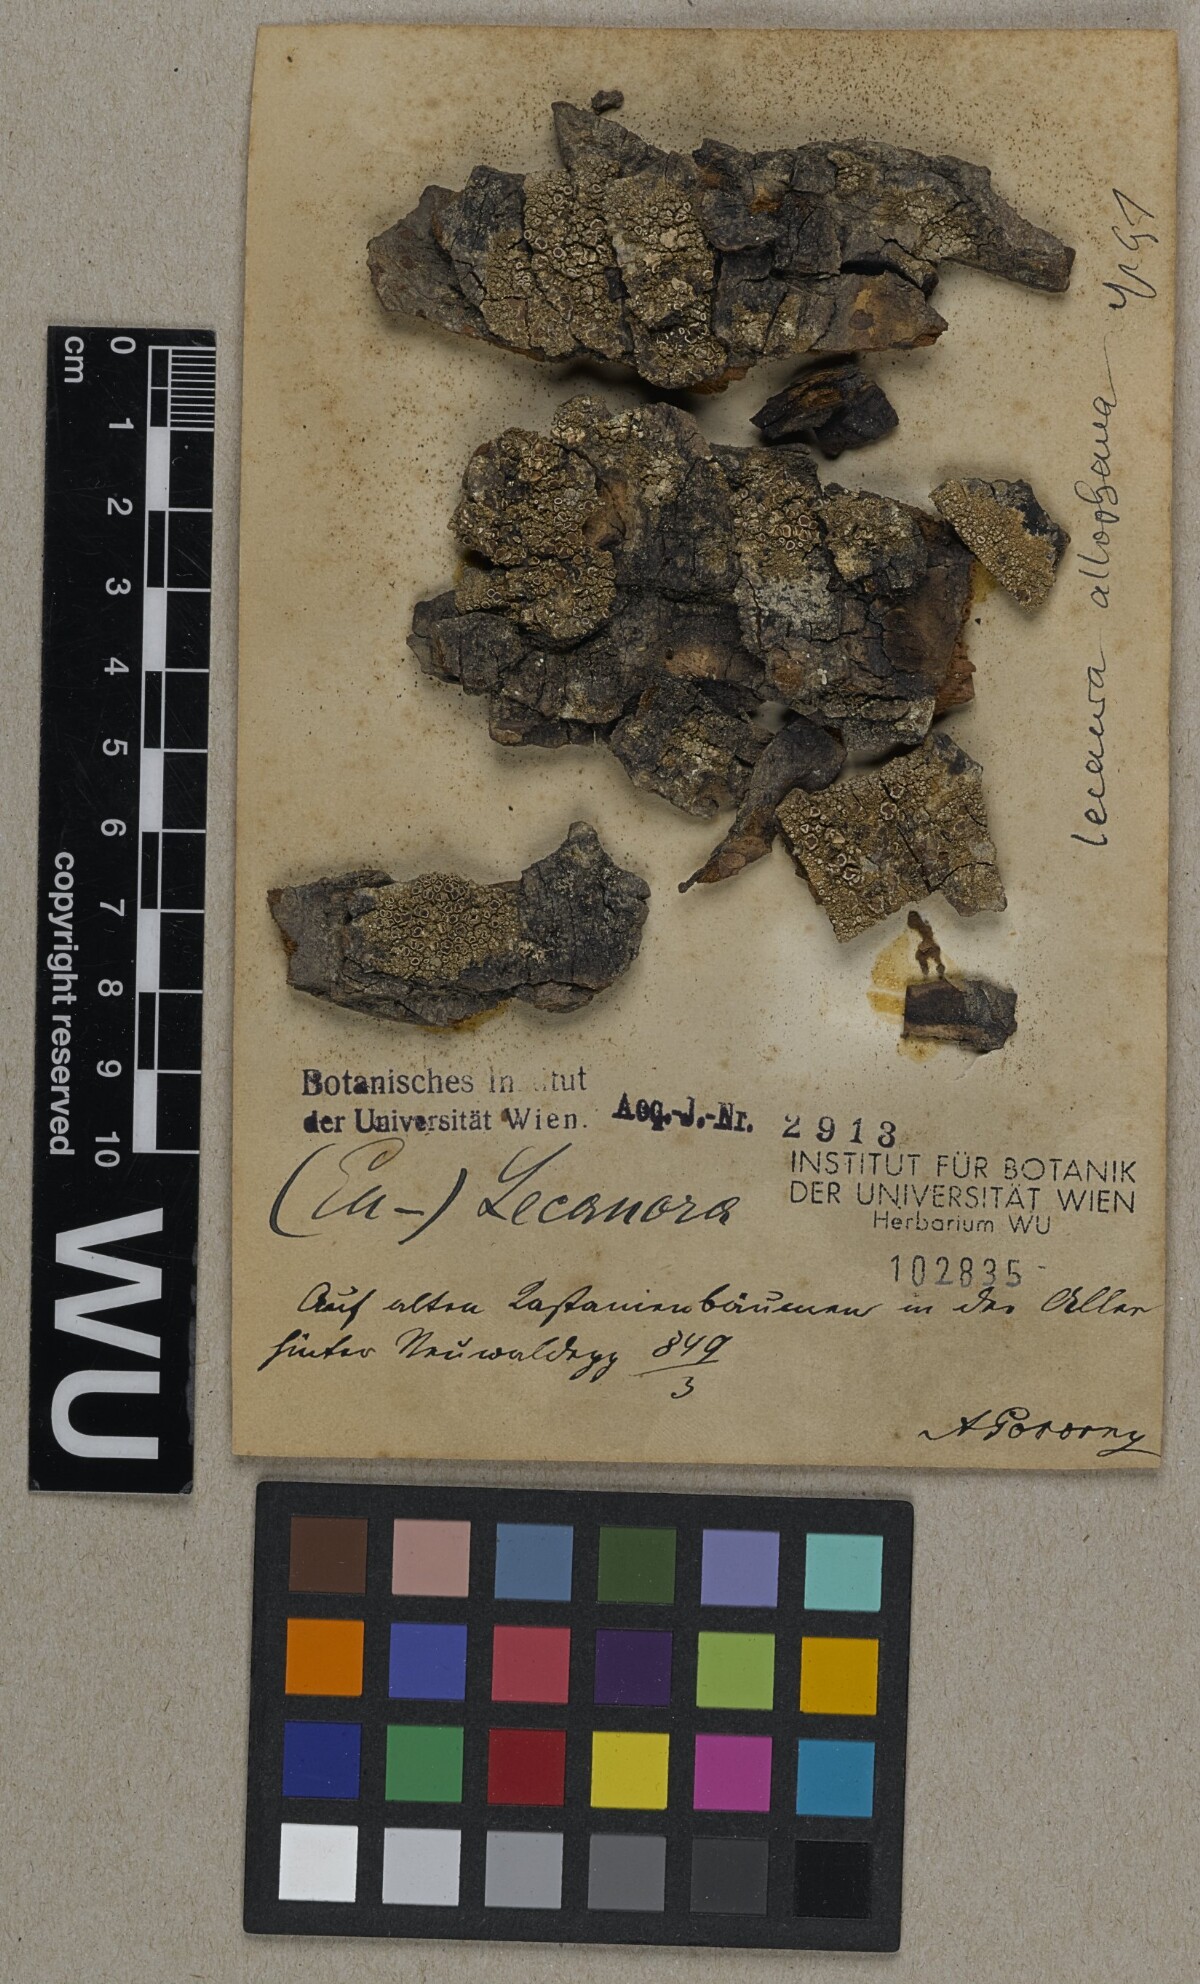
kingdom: Fungi
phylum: Ascomycota
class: Lecanoromycetes
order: Lecanorales
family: Lecanoraceae
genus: Lecanora
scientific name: Lecanora
